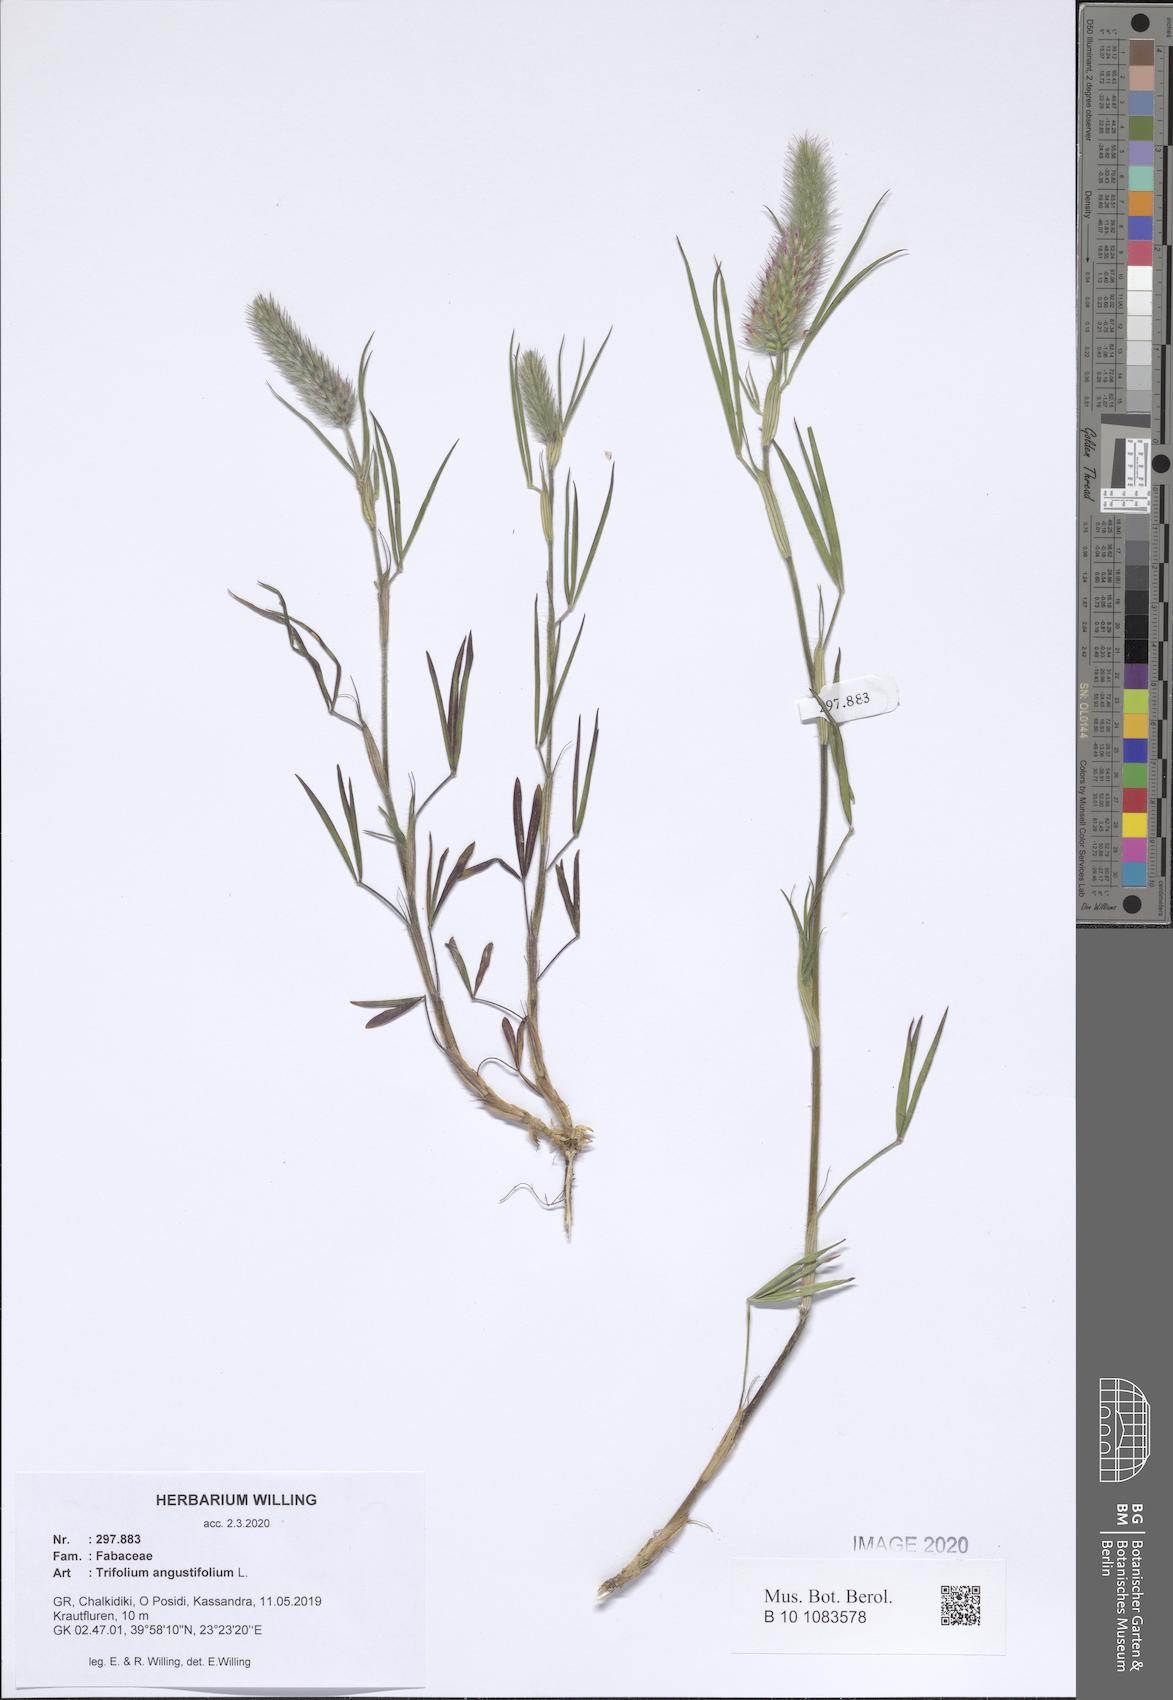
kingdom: Plantae
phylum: Tracheophyta
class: Magnoliopsida
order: Fabales
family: Fabaceae
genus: Trifolium
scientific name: Trifolium angustifolium
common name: Narrow clover
